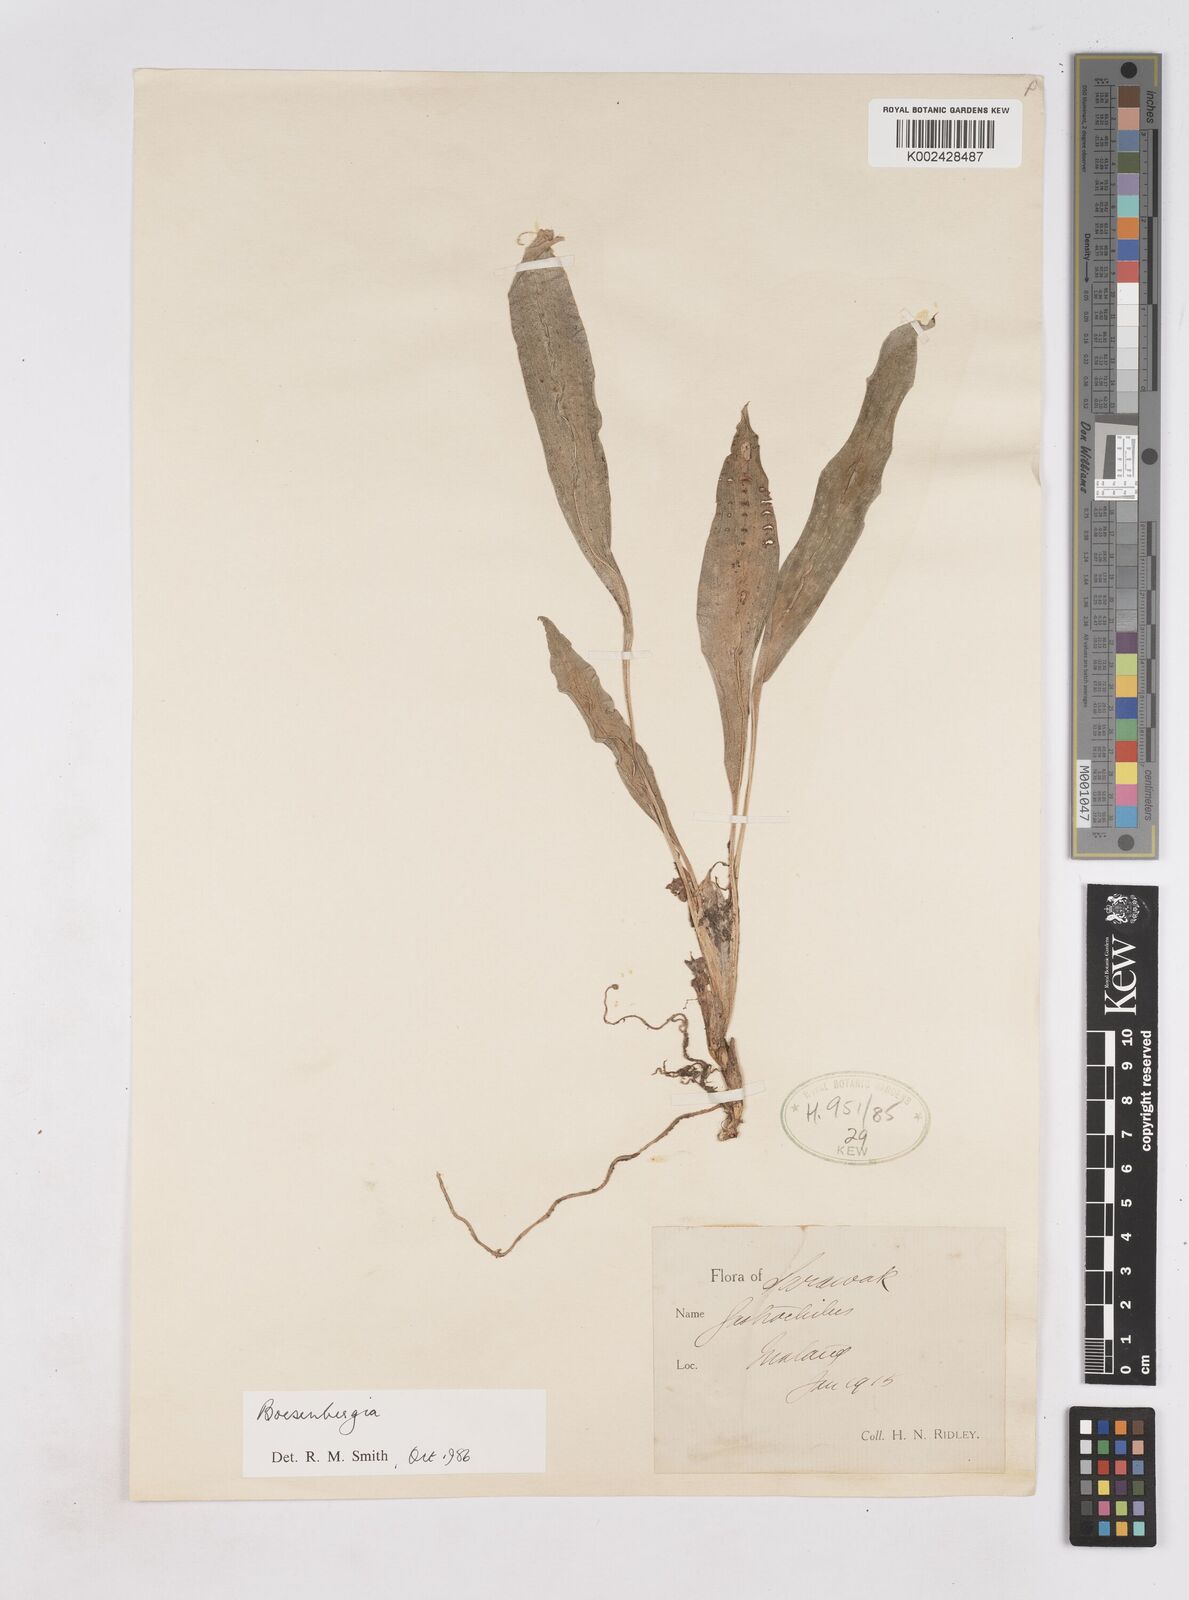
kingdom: Plantae
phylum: Tracheophyta
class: Liliopsida
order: Zingiberales
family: Zingiberaceae
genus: Boesenbergia
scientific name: Boesenbergia
